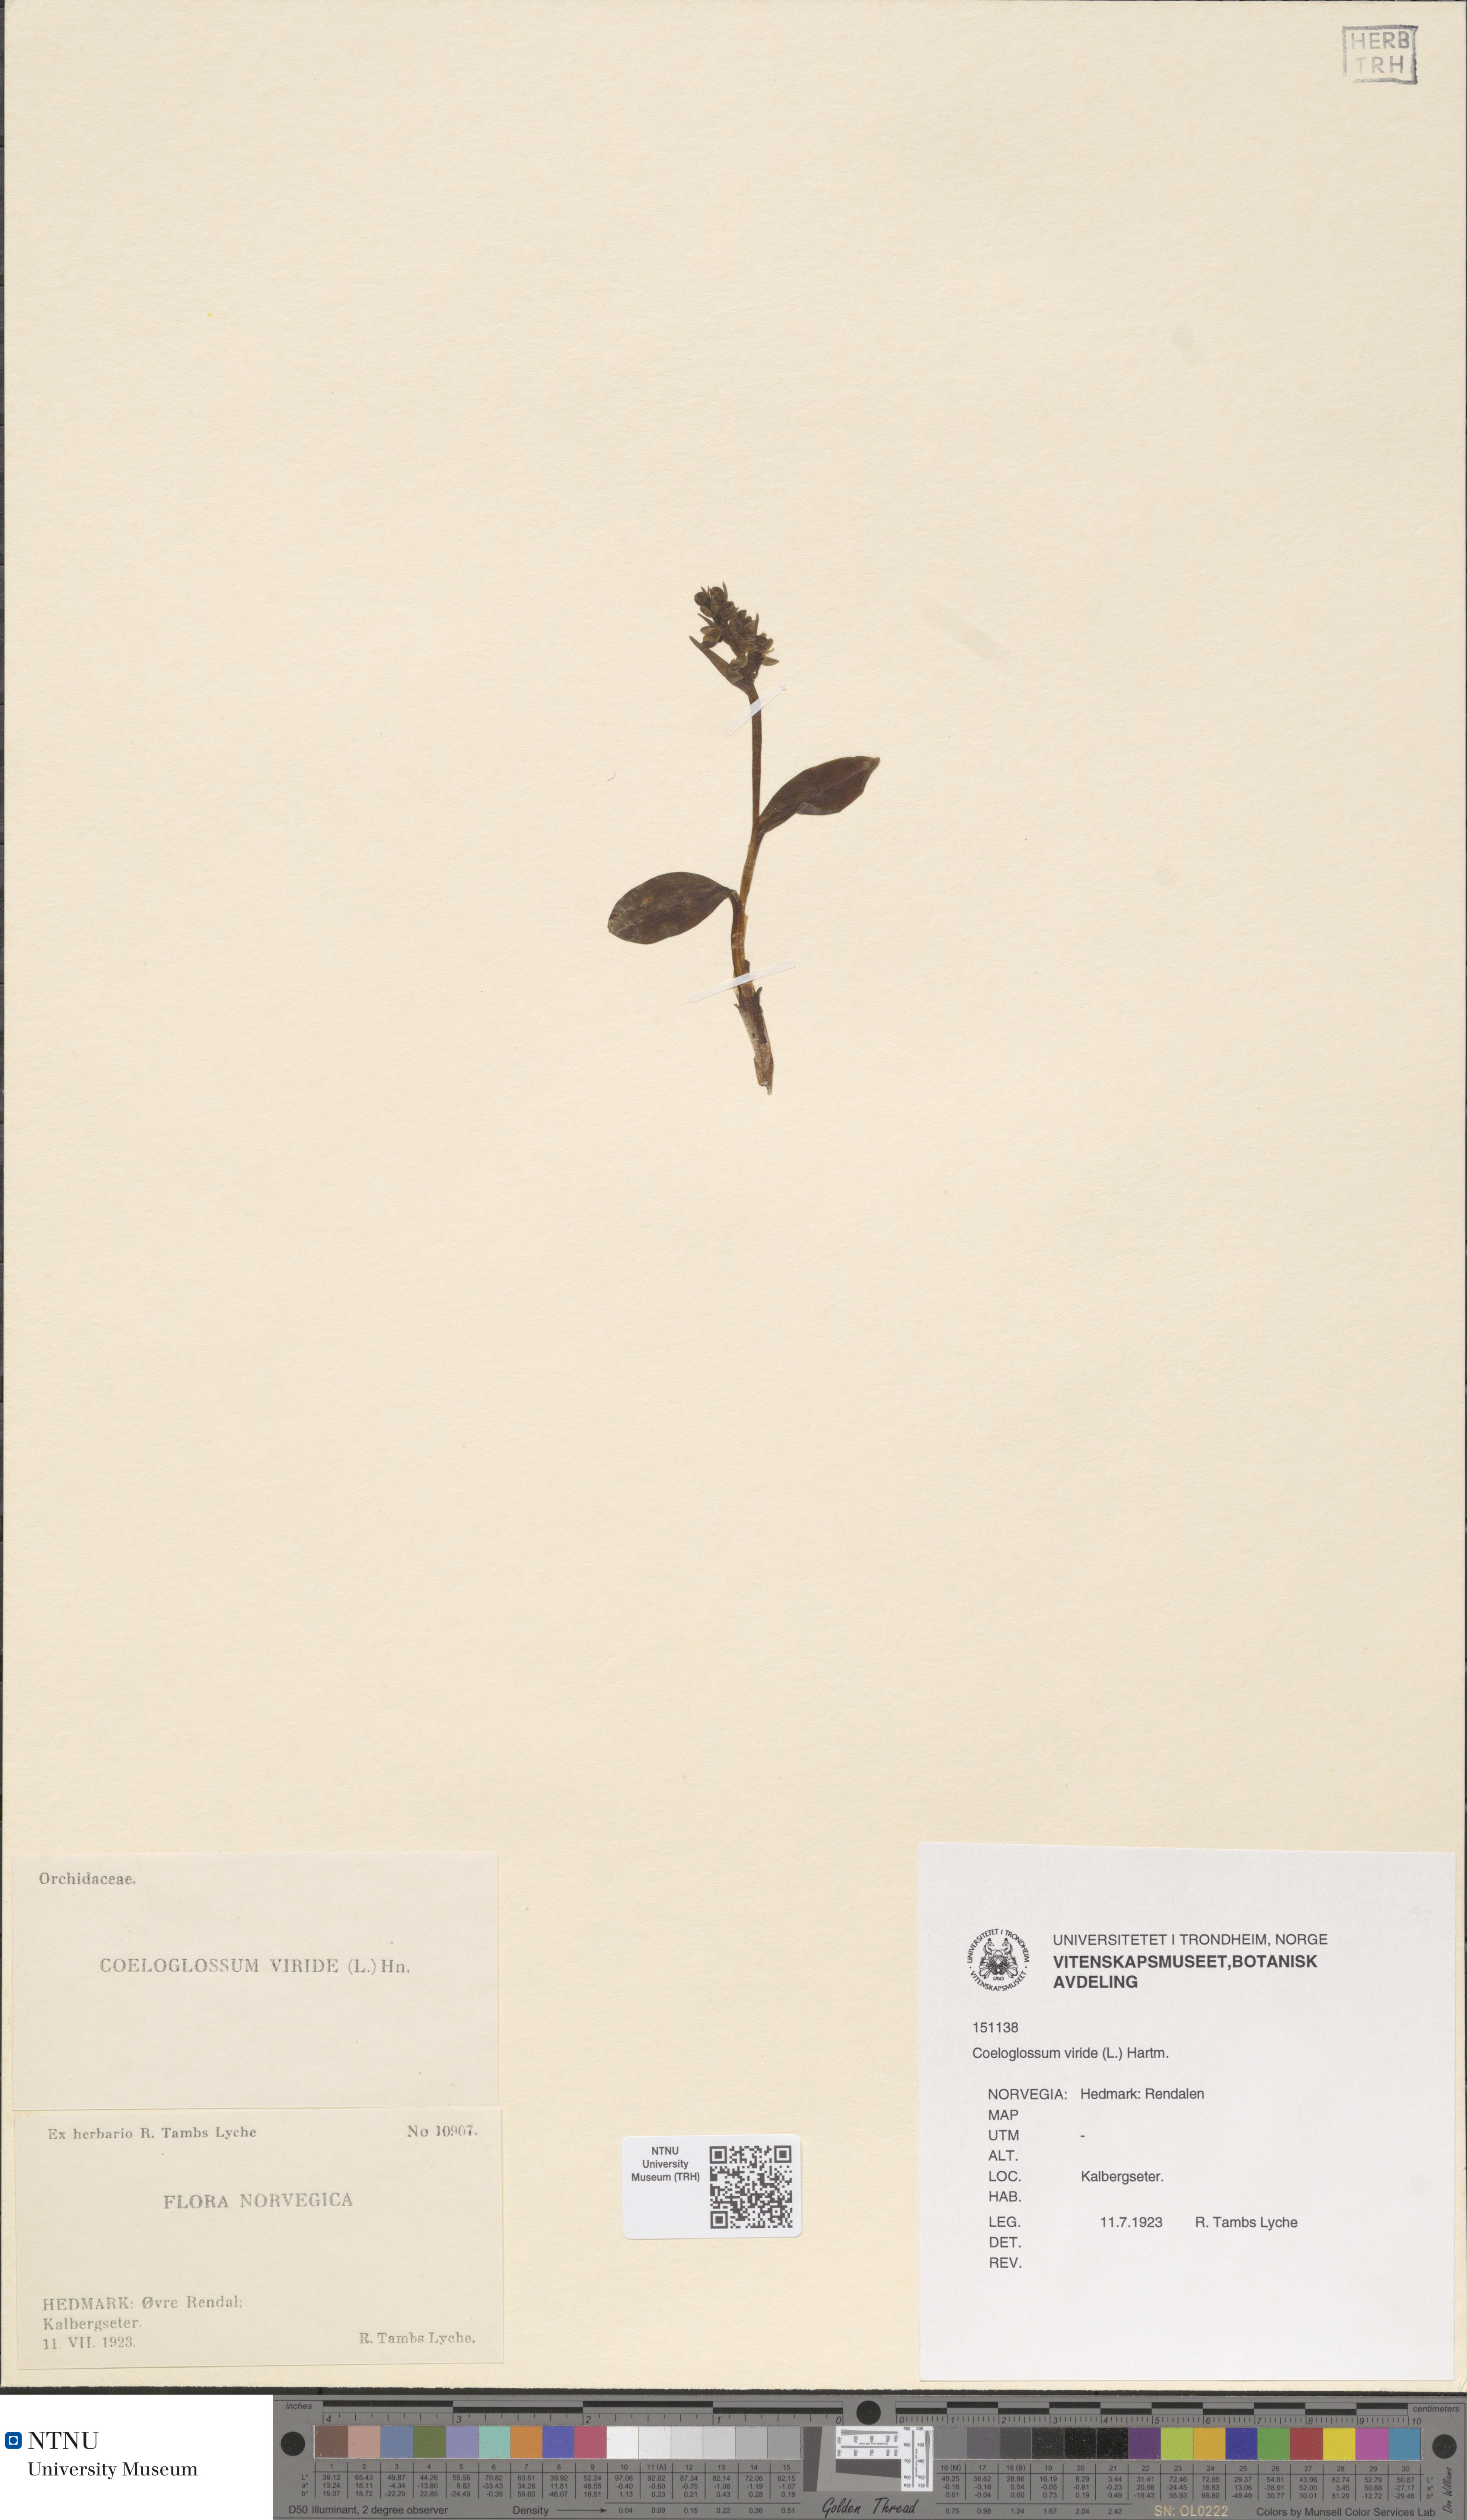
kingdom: Plantae
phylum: Tracheophyta
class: Liliopsida
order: Asparagales
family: Orchidaceae
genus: Dactylorhiza
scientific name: Dactylorhiza viridis
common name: Longbract frog orchid
